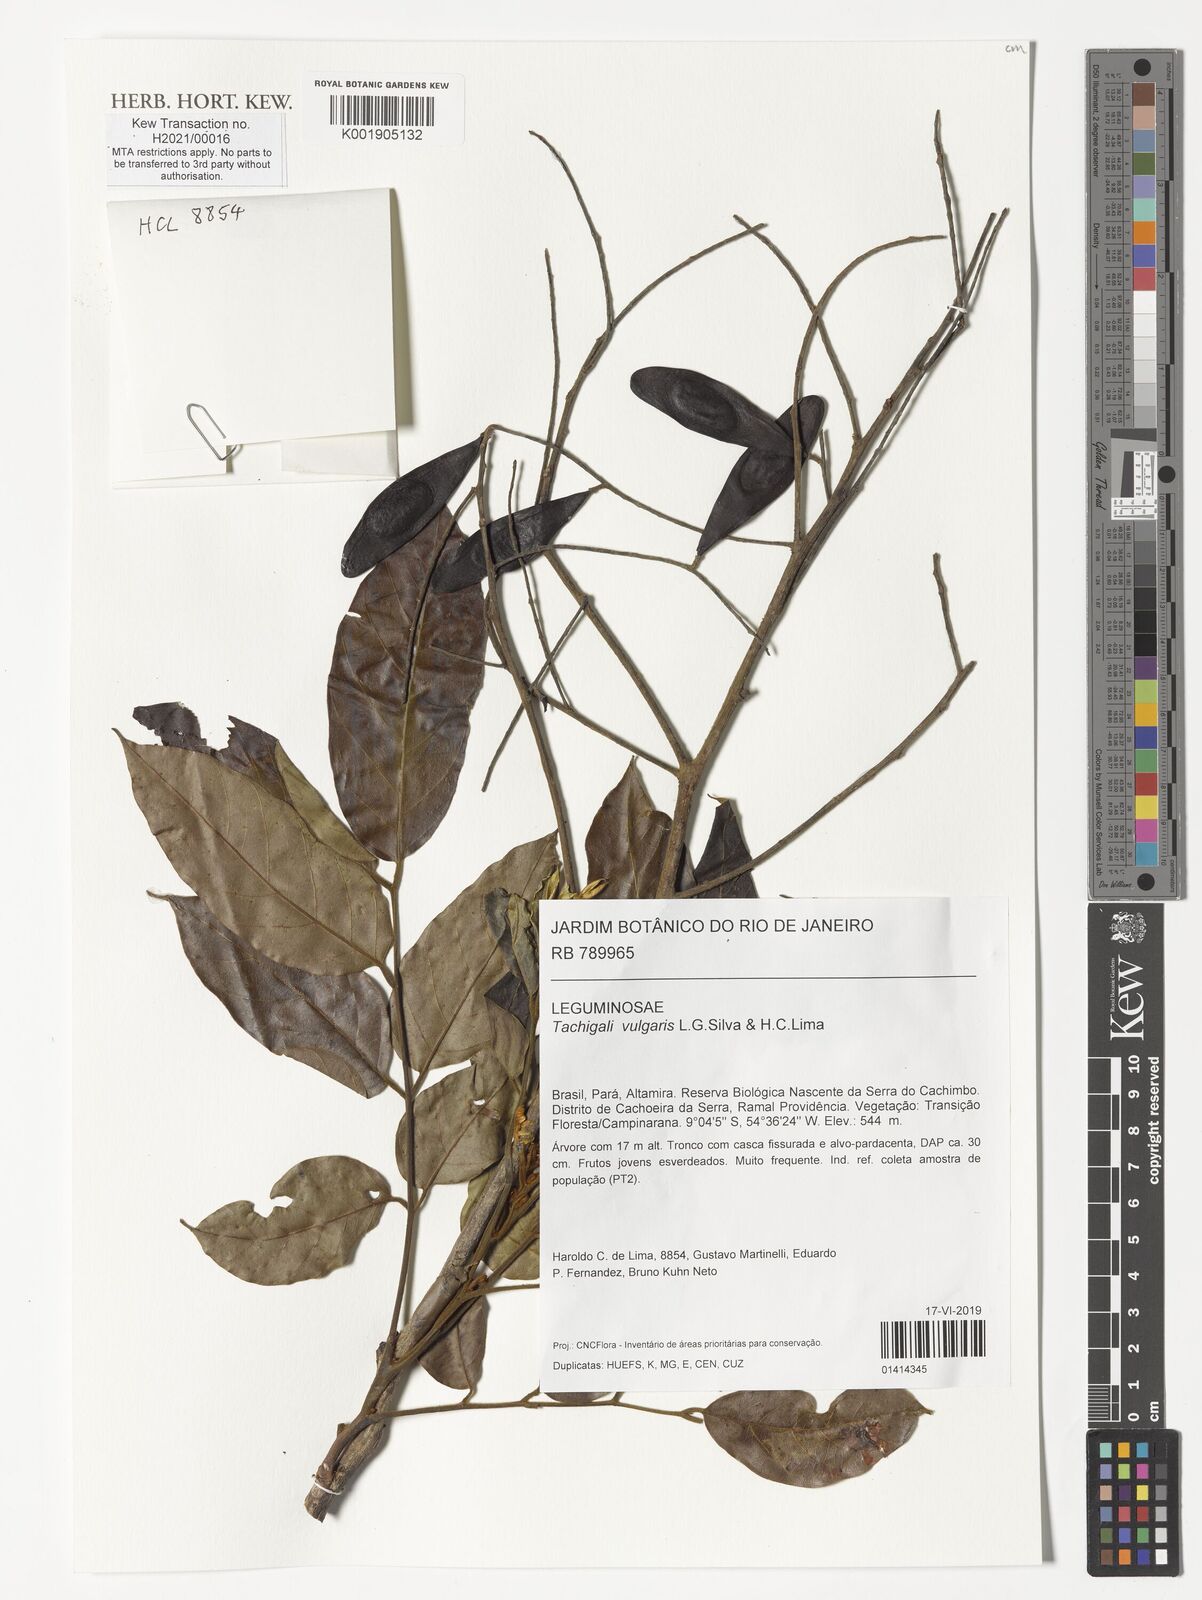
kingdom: Plantae
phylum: Tracheophyta
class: Magnoliopsida
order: Fabales
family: Fabaceae
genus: Tachigali
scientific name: Tachigali vulgaris
